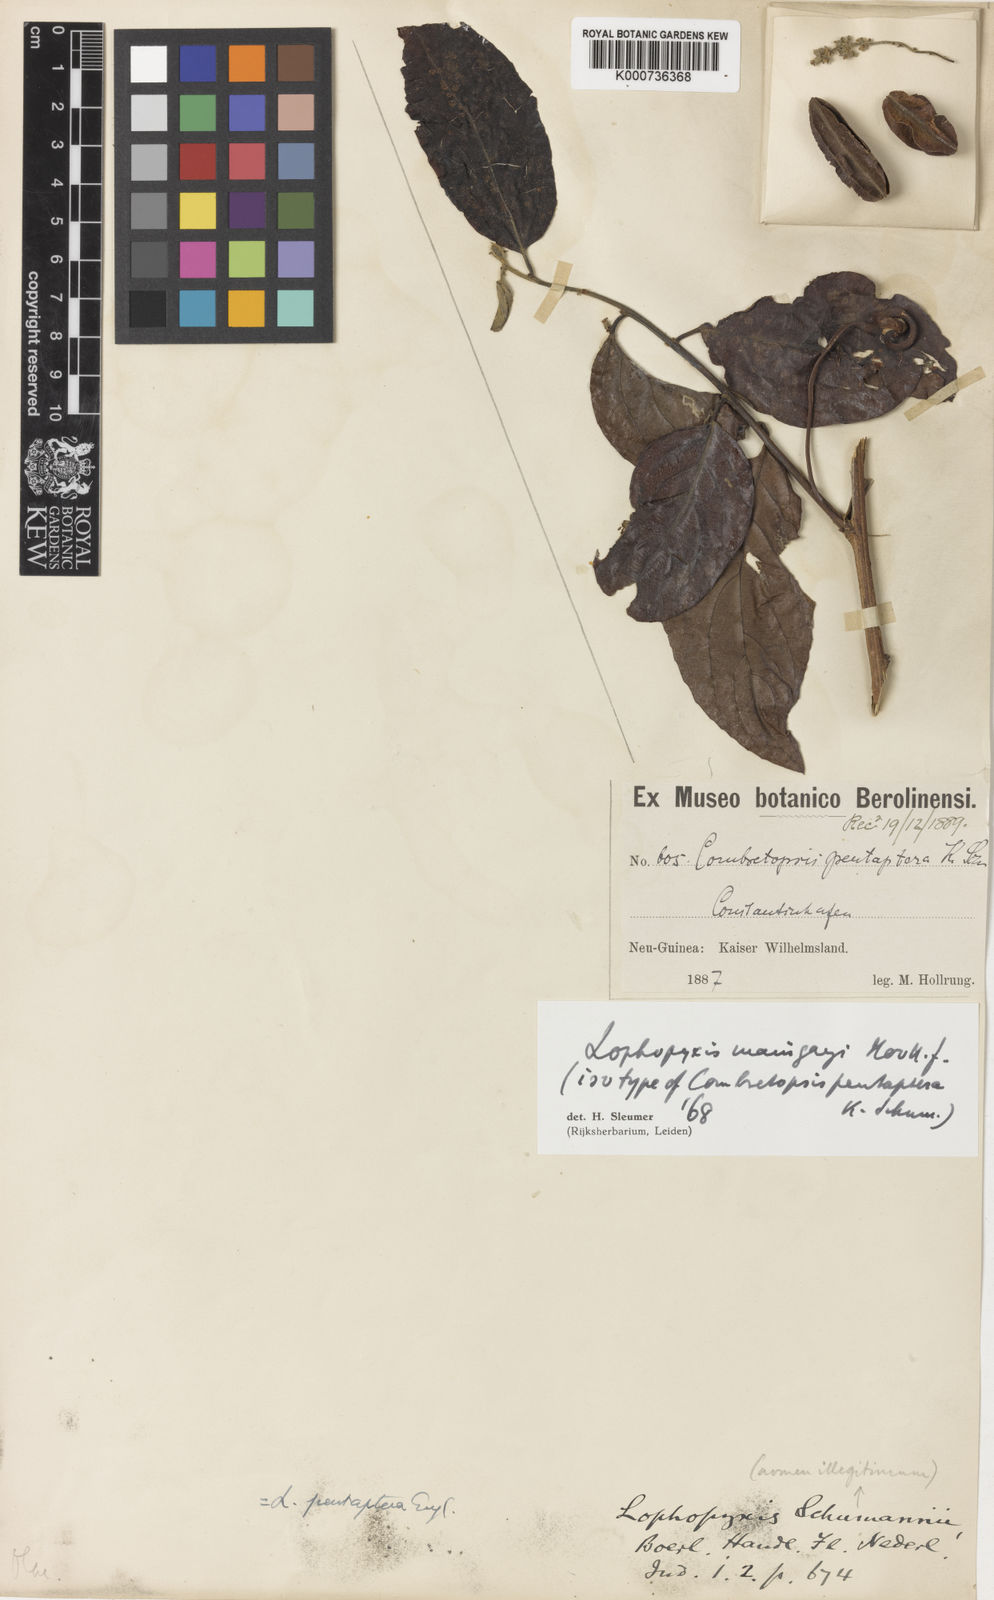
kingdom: Plantae
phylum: Tracheophyta
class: Magnoliopsida
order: Malpighiales
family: Lophopyxidaceae
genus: Lophopyxis
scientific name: Lophopyxis maingayi
